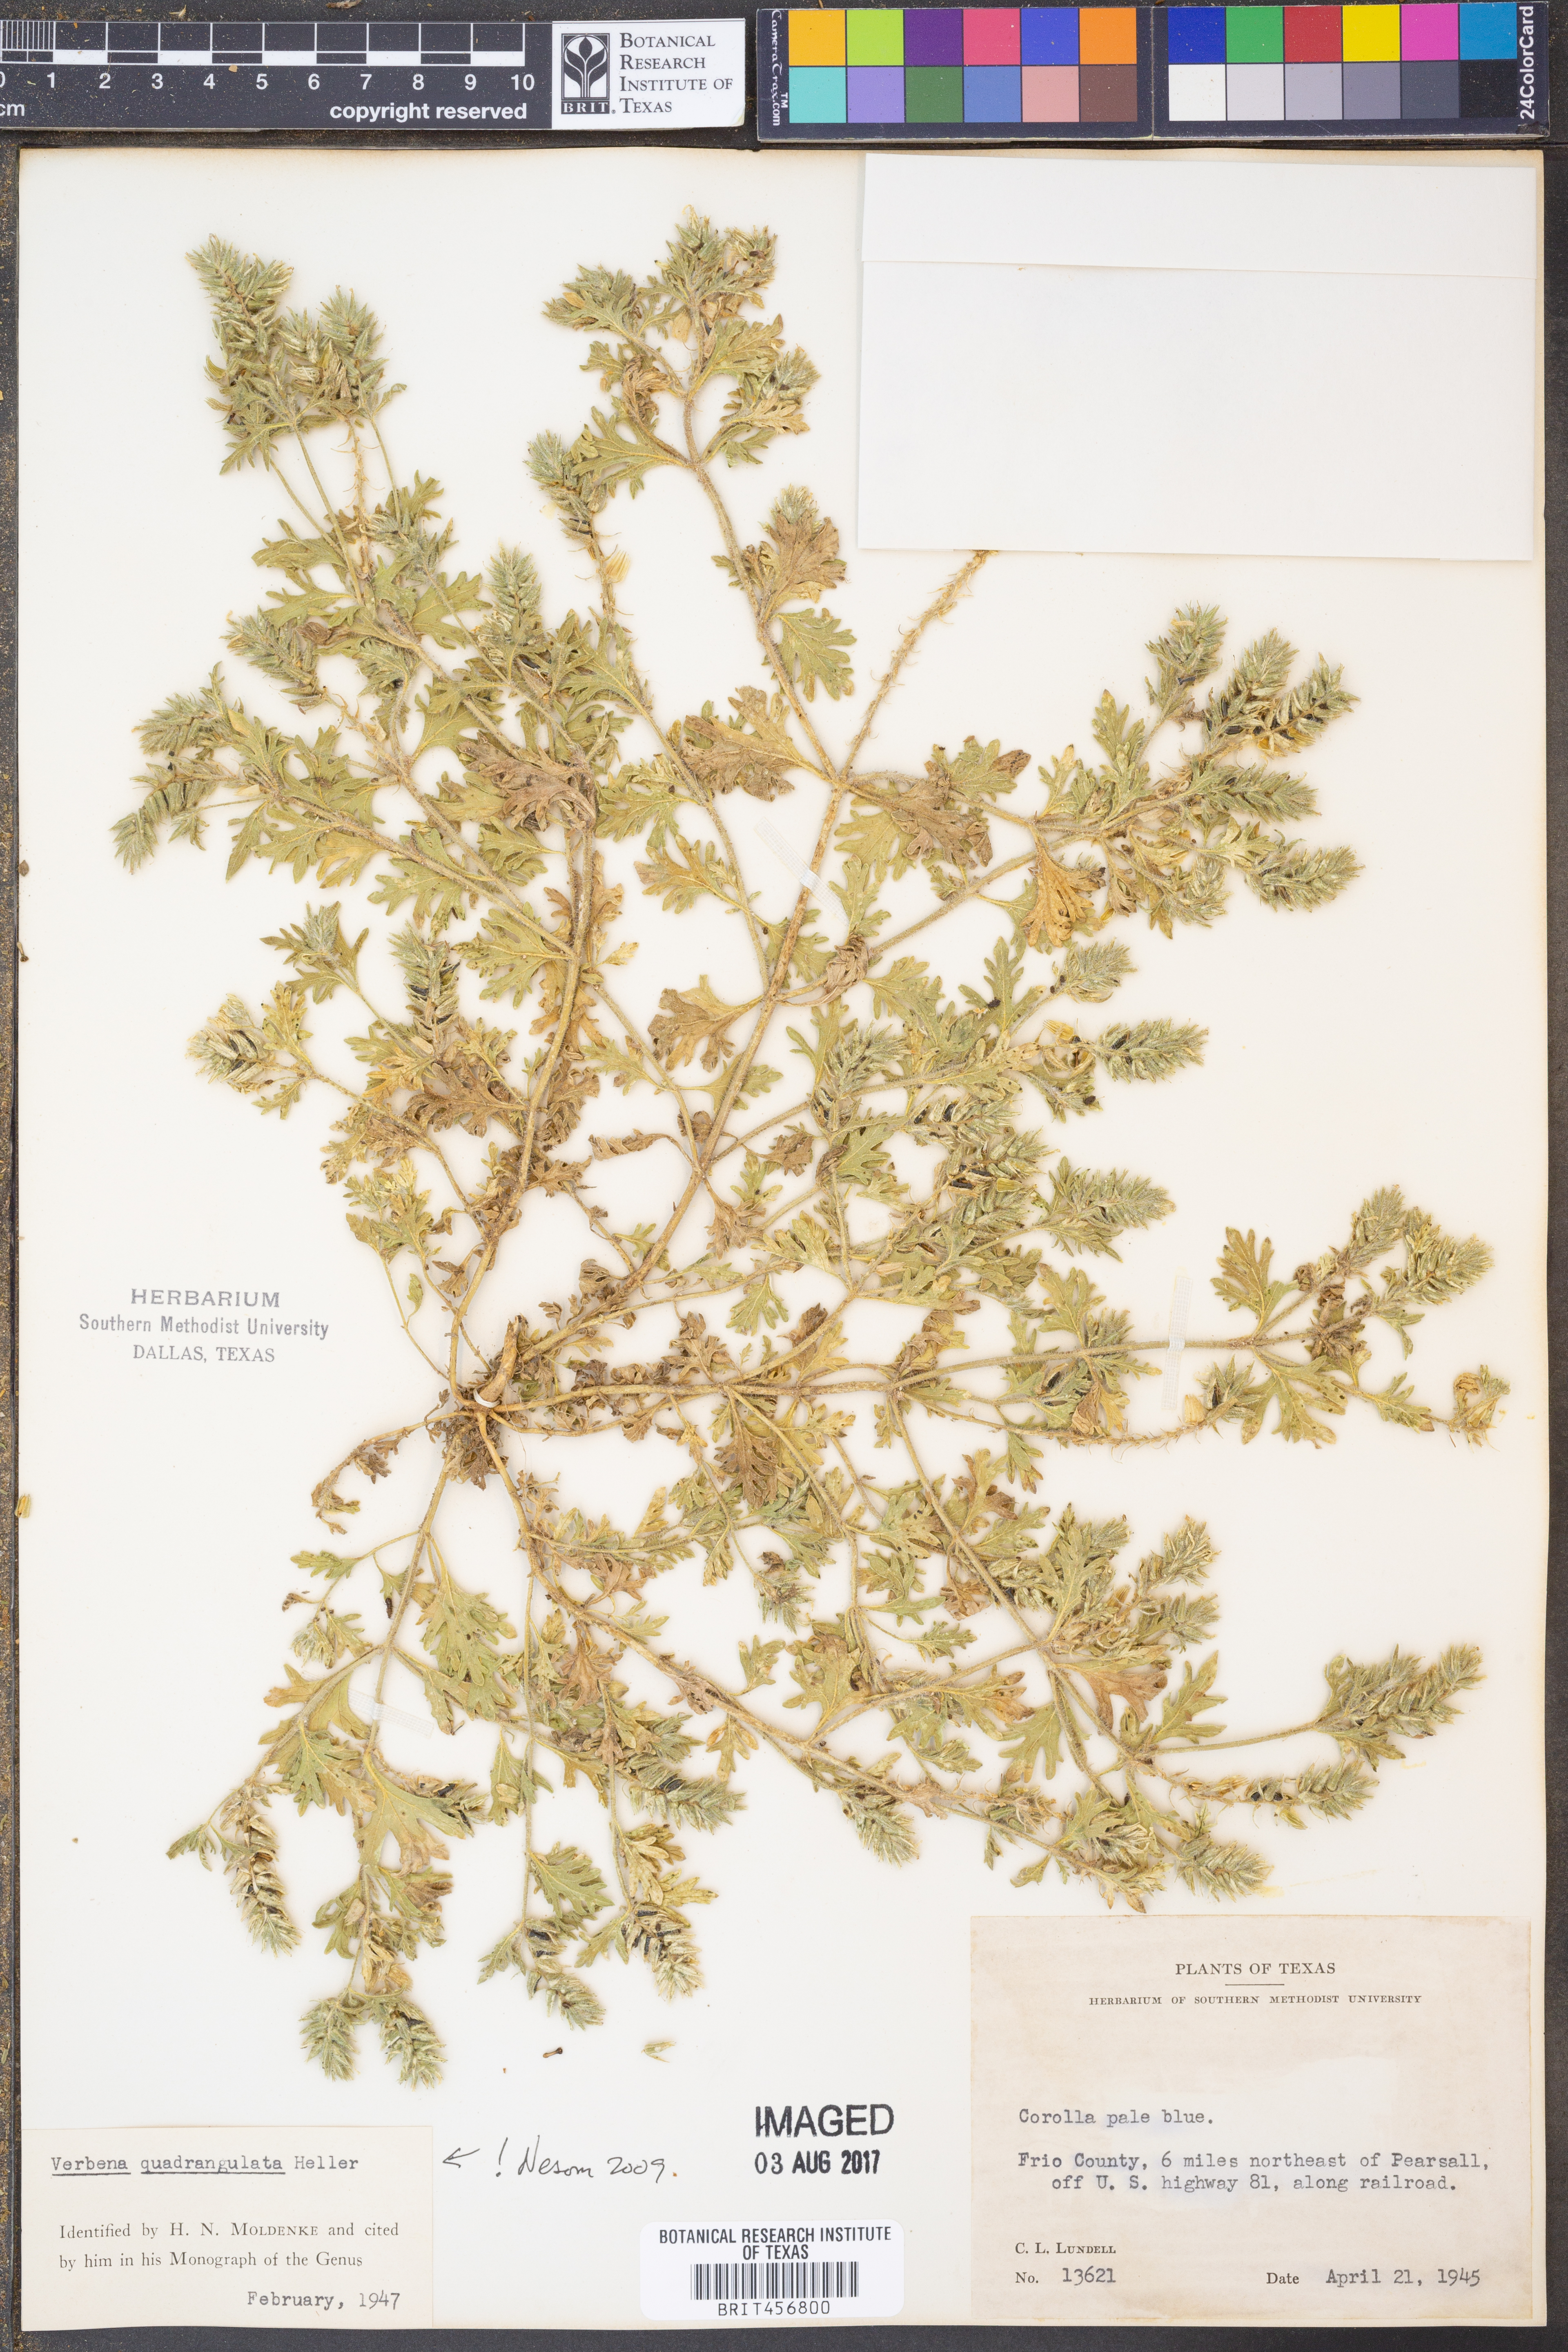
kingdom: Plantae
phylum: Tracheophyta
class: Magnoliopsida
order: Lamiales
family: Verbenaceae
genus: Verbena
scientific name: Verbena quadrangulata
